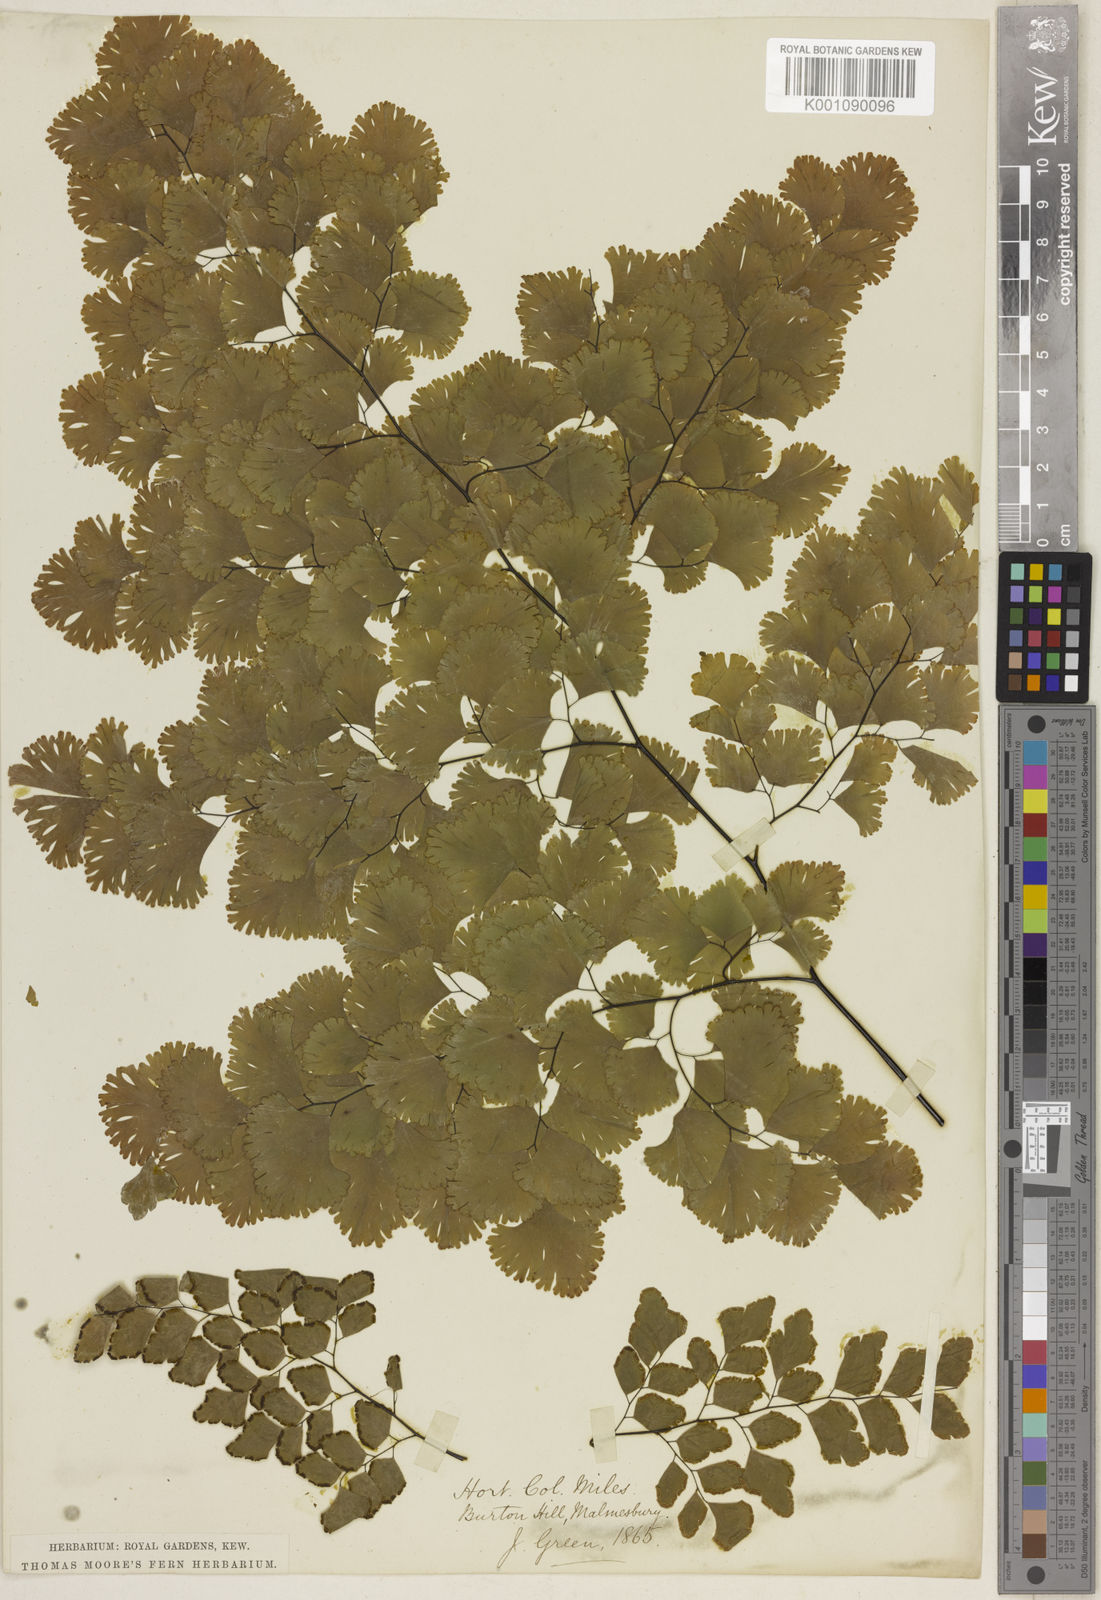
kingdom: Plantae
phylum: Tracheophyta
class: Polypodiopsida
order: Polypodiales
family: Pteridaceae
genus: Adiantum
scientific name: Adiantum tenerum
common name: Fan maidenhair
